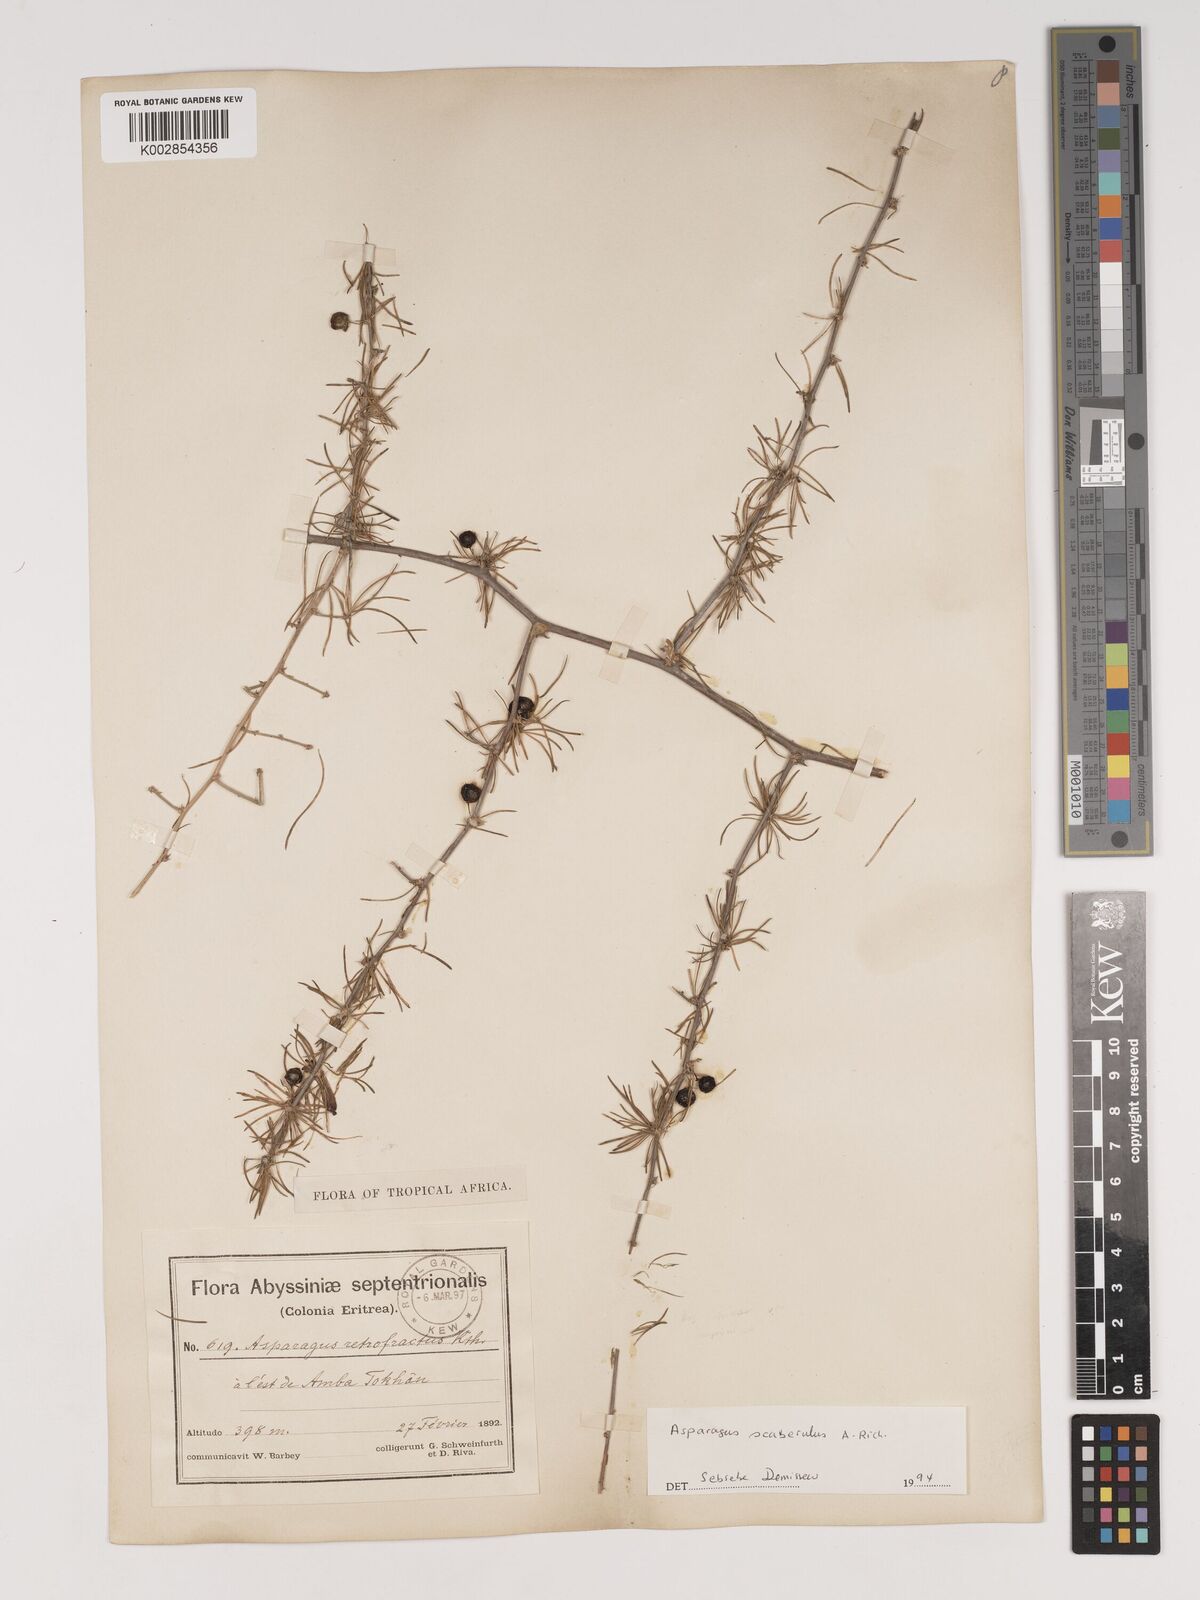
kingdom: Plantae
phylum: Tracheophyta
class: Liliopsida
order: Asparagales
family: Asparagaceae
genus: Asparagus
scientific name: Asparagus africanus
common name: Asparagus-fern
